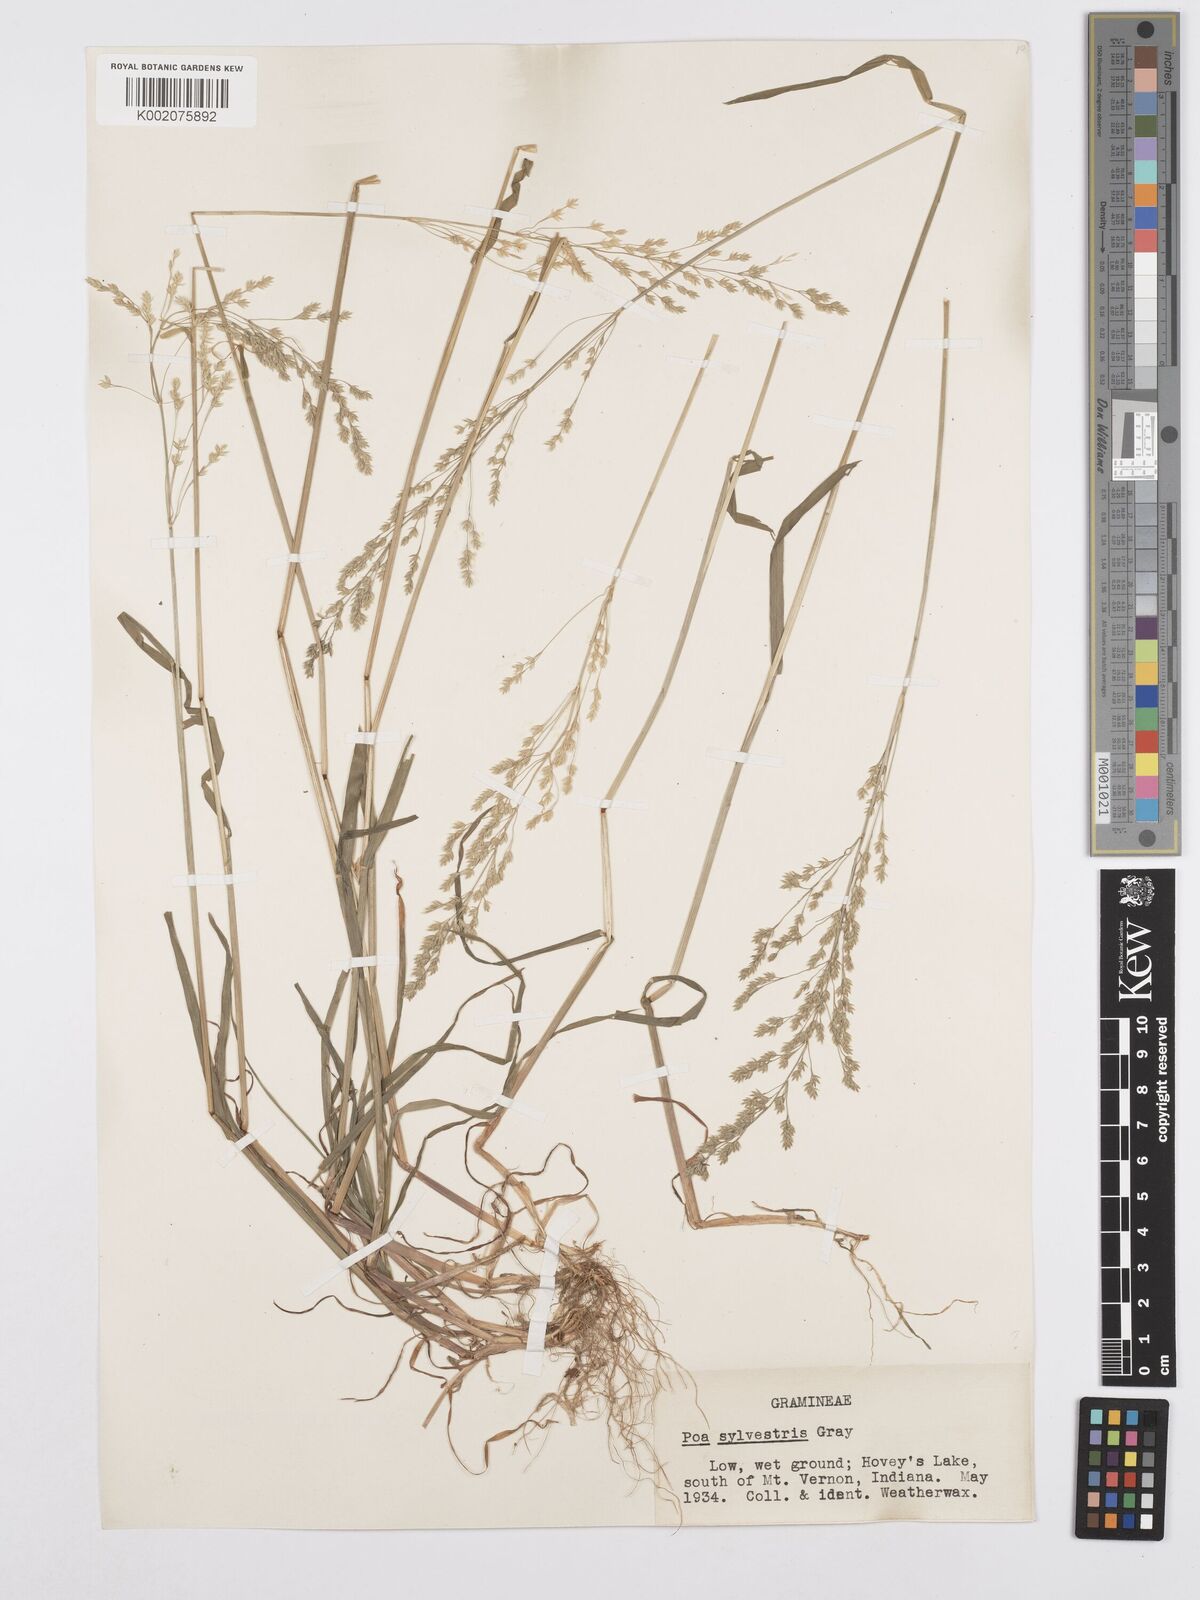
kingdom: Plantae
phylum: Tracheophyta
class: Liliopsida
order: Poales
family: Poaceae
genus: Poa
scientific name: Poa sylvestris
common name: North american woodland bluegrass
